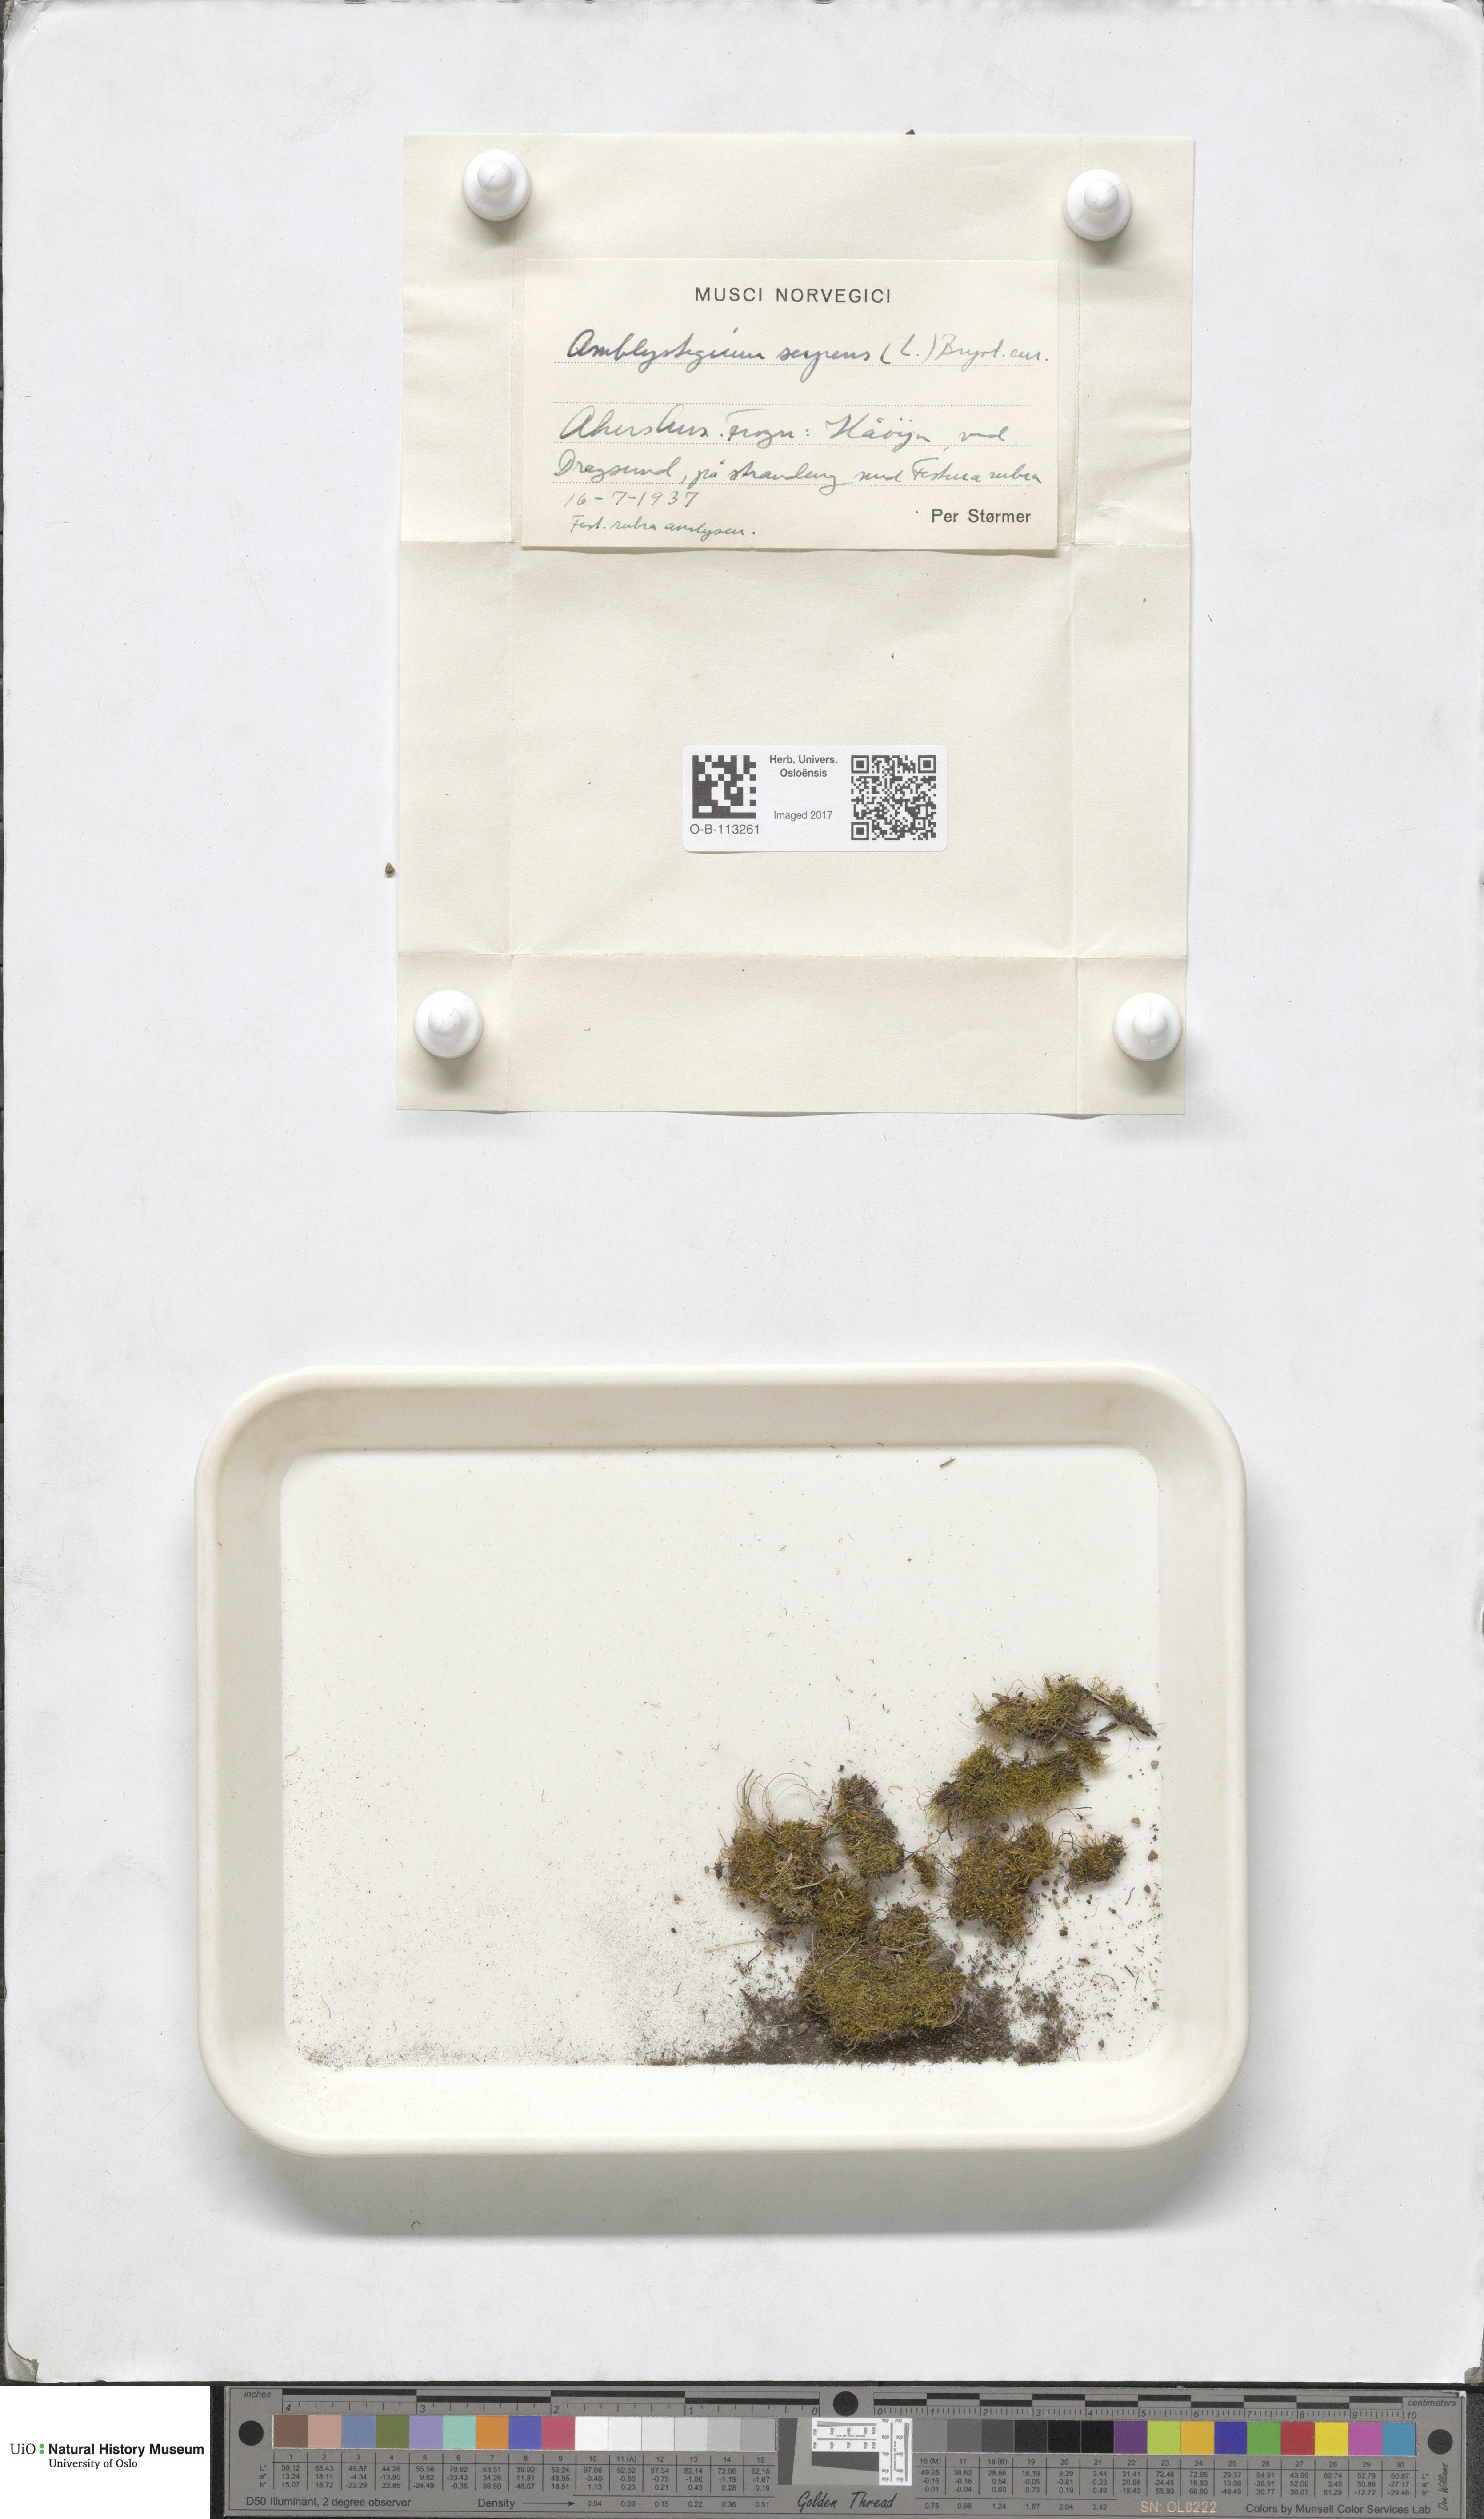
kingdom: Plantae
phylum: Bryophyta
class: Bryopsida
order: Hypnales
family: Amblystegiaceae
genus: Amblystegium
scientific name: Amblystegium serpens
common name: Jurkatzka's feather moss
